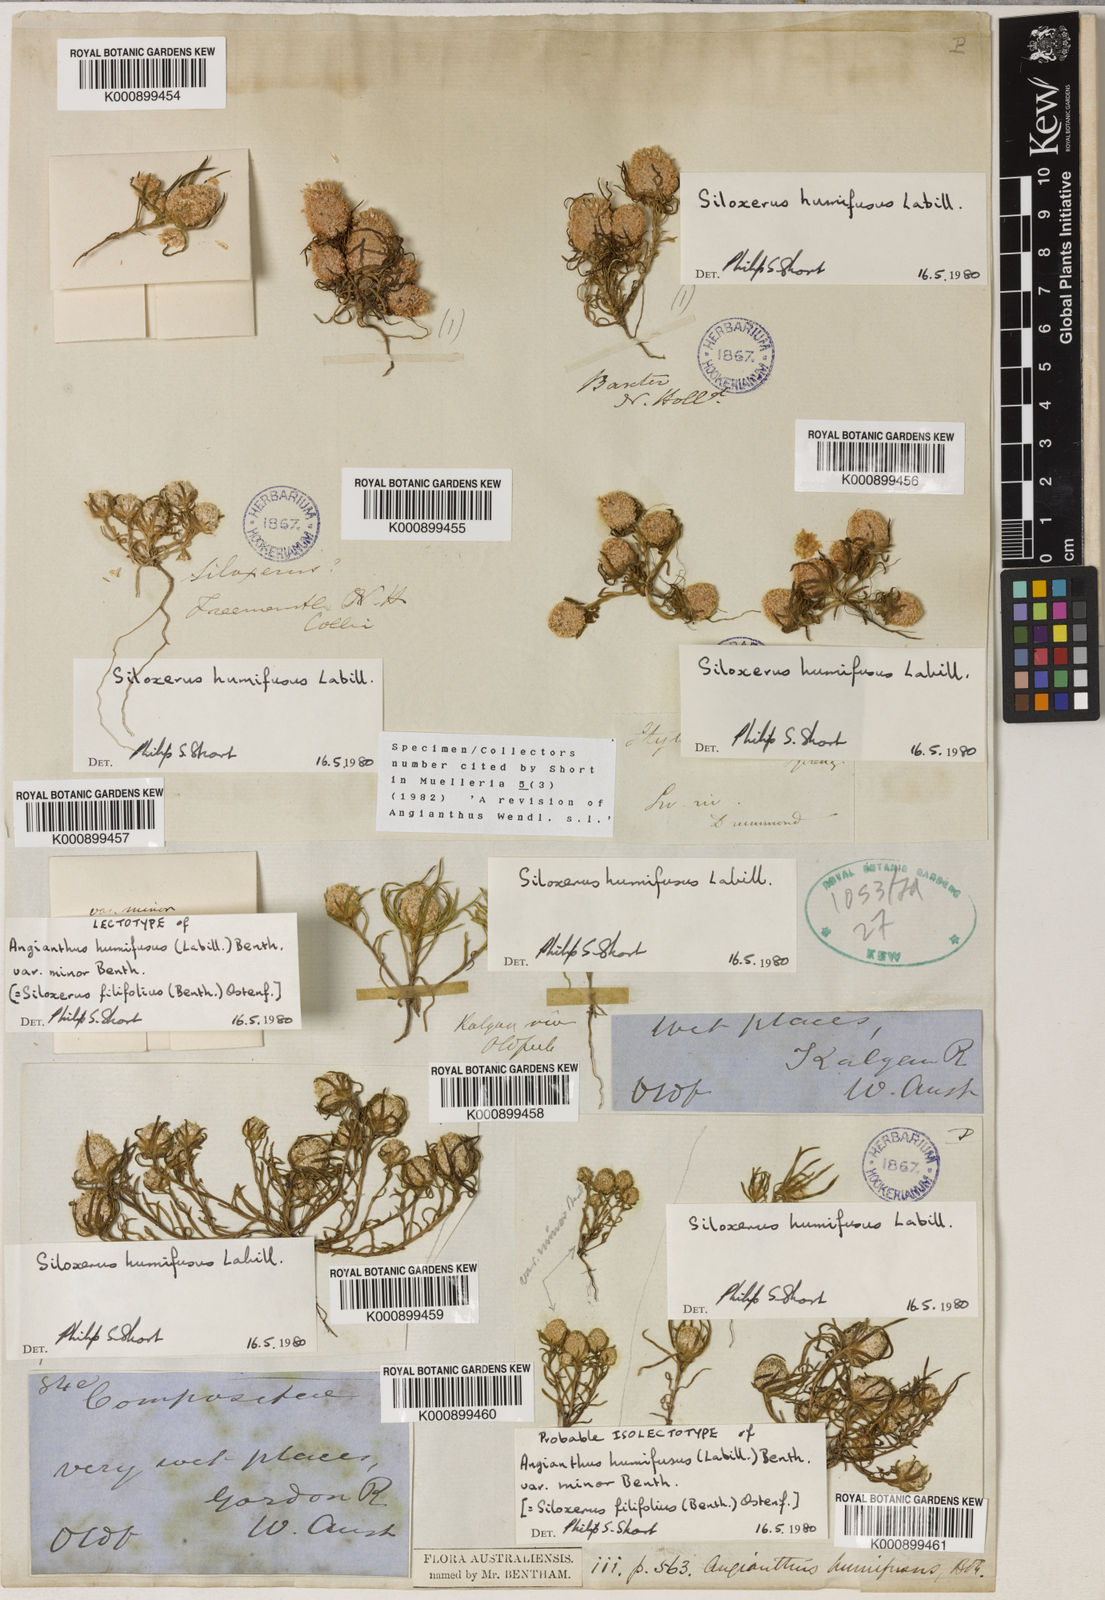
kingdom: Plantae
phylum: Tracheophyta
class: Magnoliopsida
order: Asterales
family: Asteraceae
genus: Siloxerus
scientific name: Siloxerus filifolius
